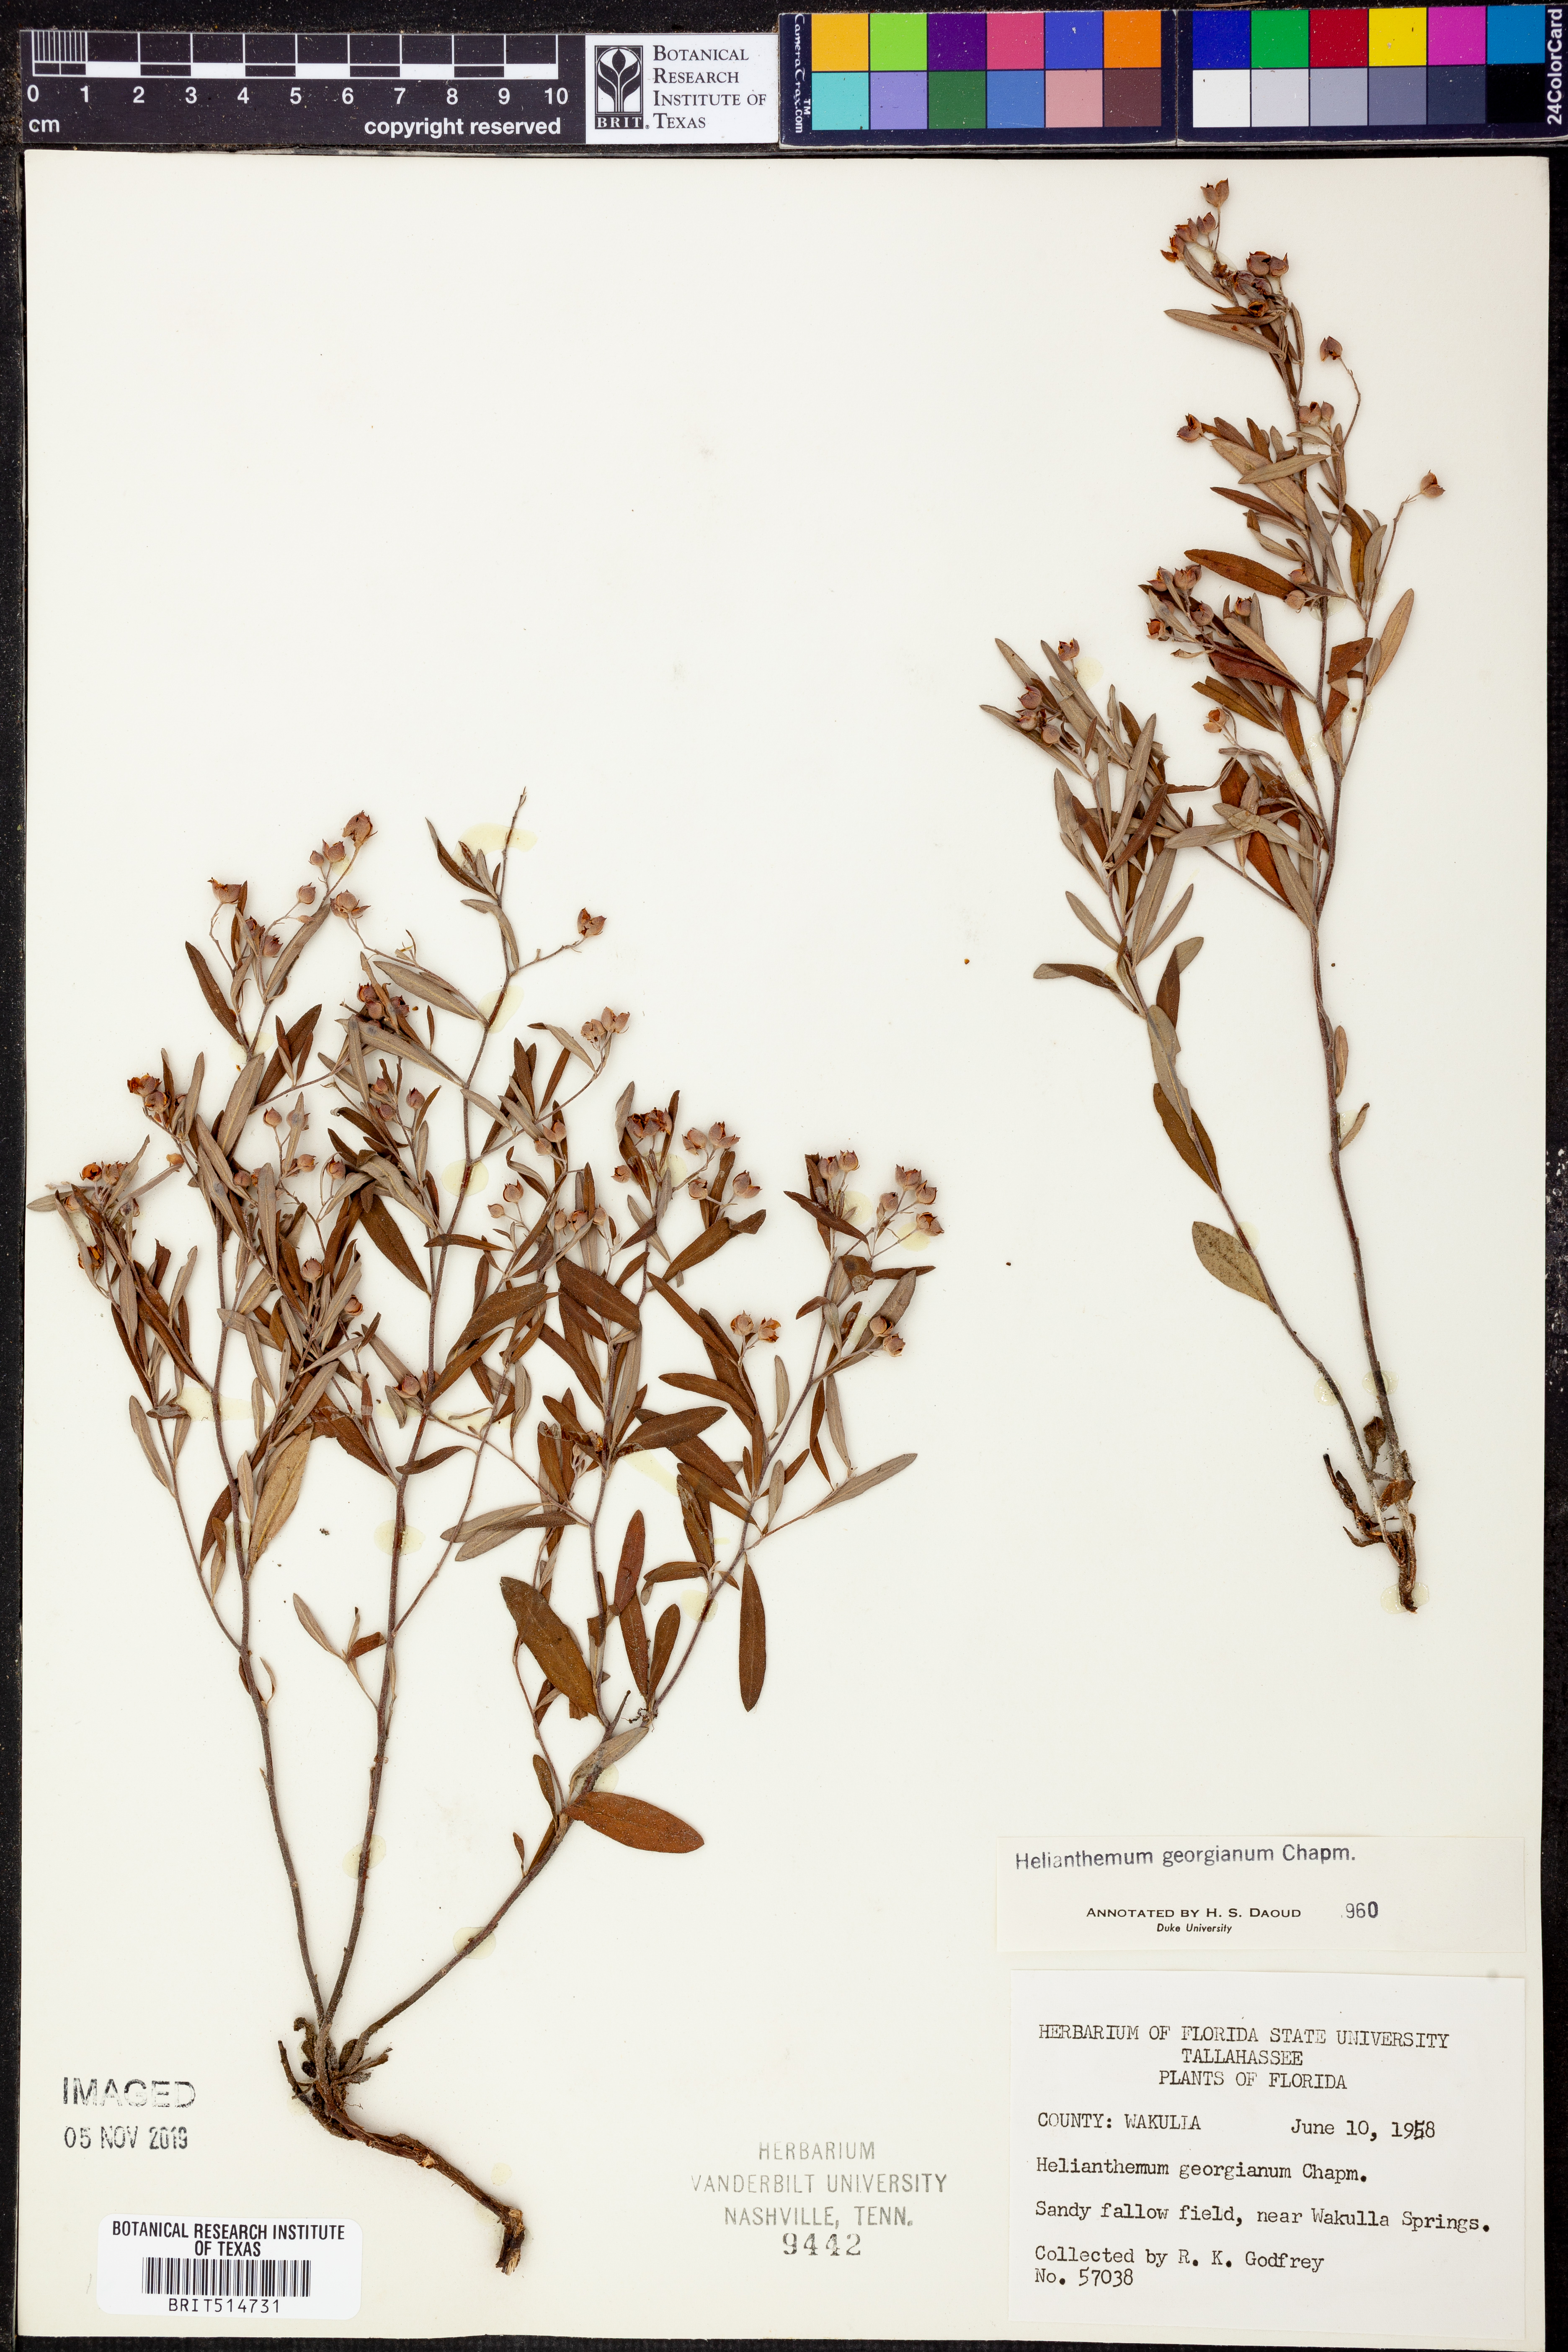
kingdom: Plantae
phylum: Tracheophyta
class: Magnoliopsida
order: Malvales
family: Cistaceae
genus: Crocanthemum
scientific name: Crocanthemum georgianum
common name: Georgia frostweed
